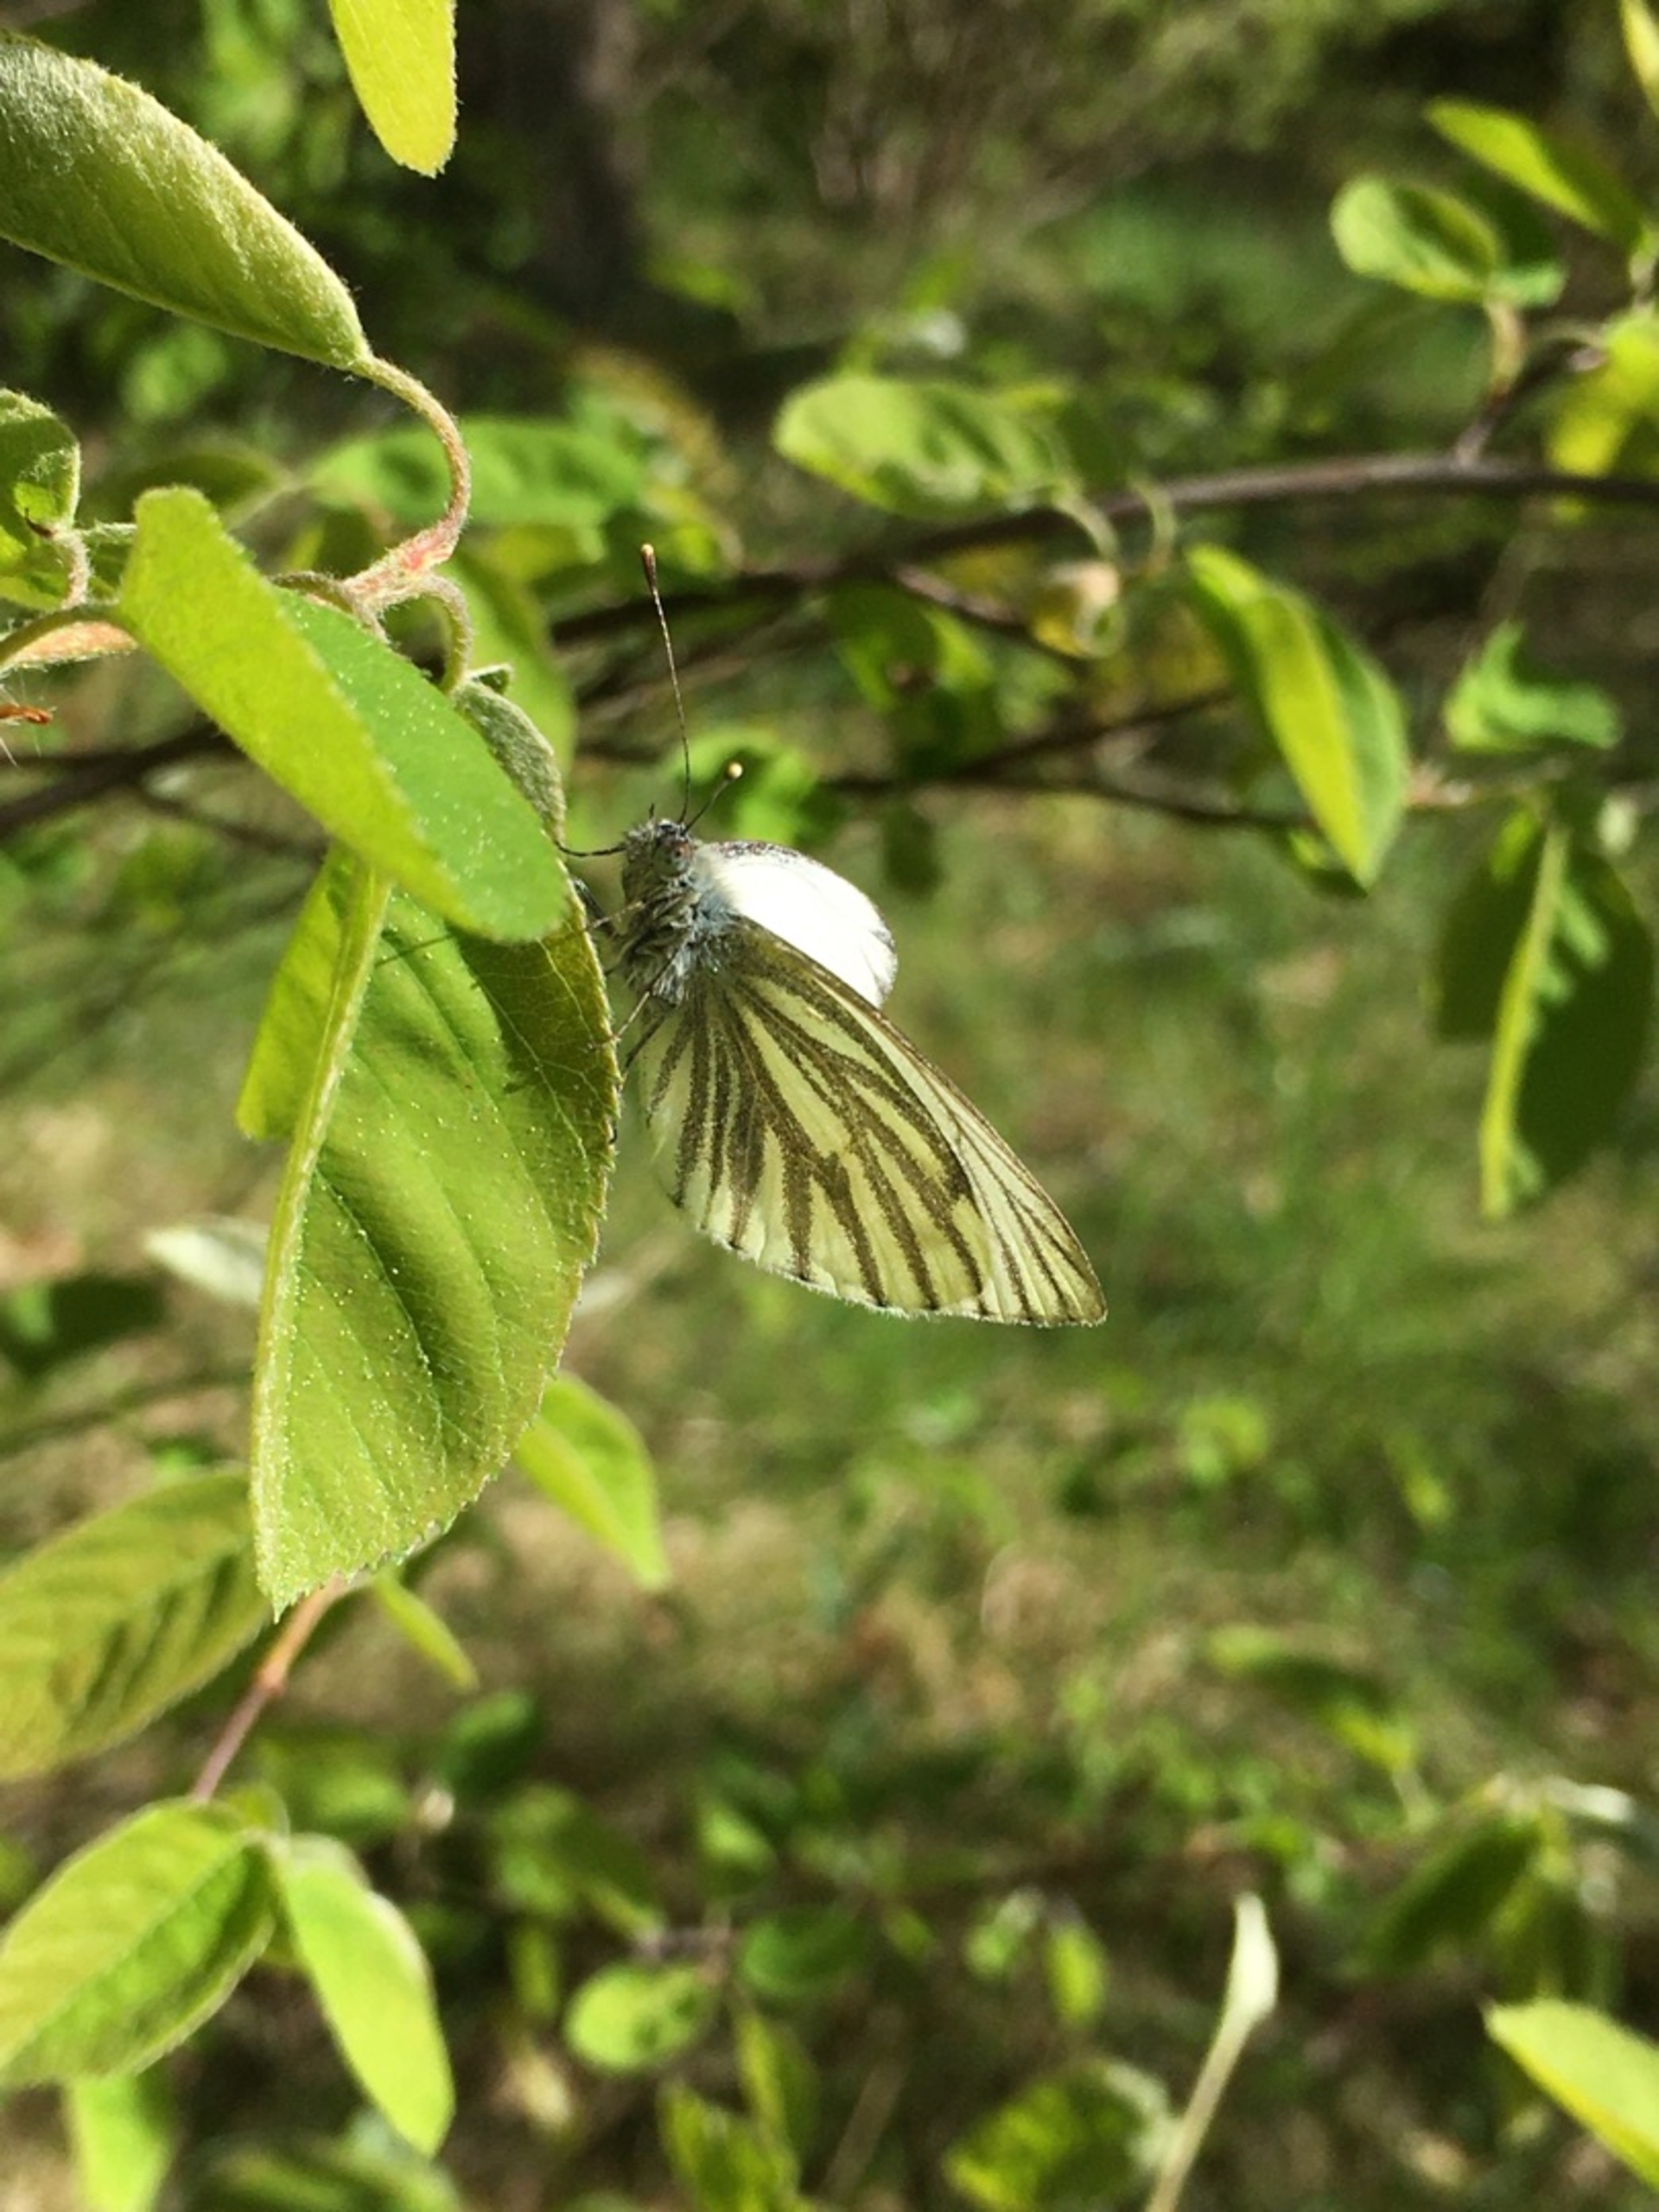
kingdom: Animalia
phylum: Arthropoda
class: Insecta
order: Lepidoptera
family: Pieridae
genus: Pieris
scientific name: Pieris napi
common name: Grønåret kålsommerfugl
